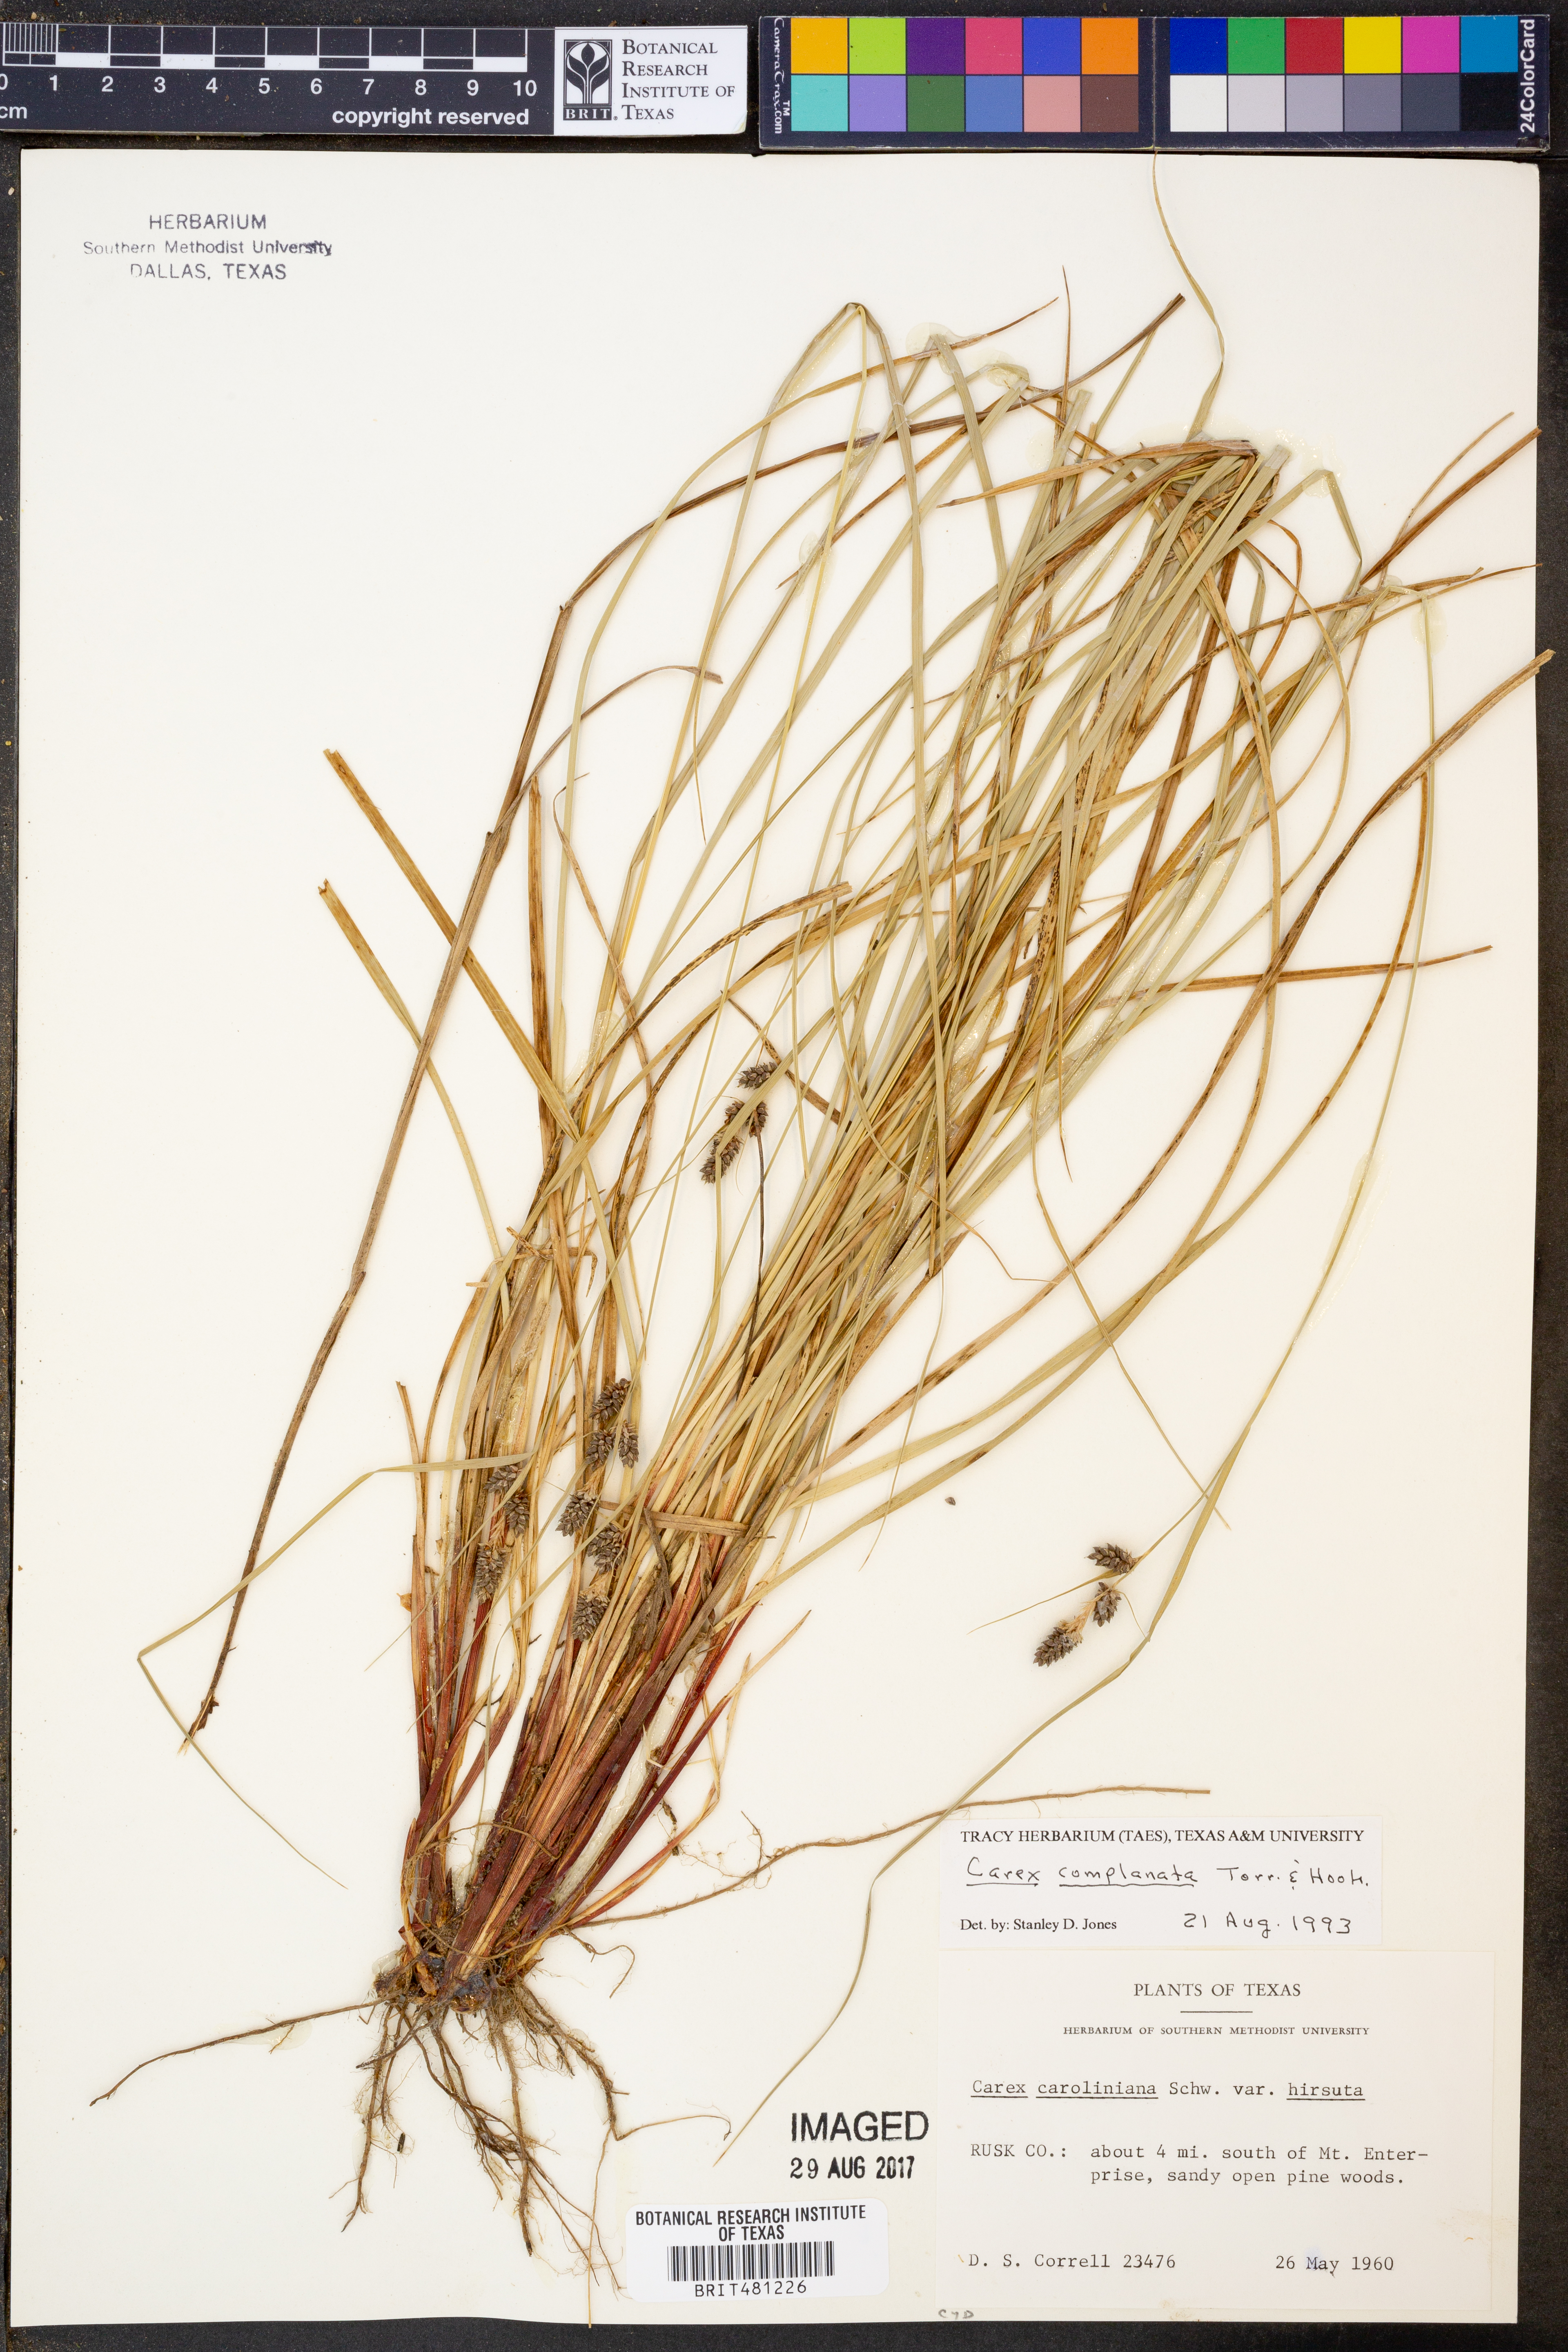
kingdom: Plantae
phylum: Tracheophyta
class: Liliopsida
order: Poales
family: Cyperaceae
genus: Carex
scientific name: Carex complanata
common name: Hirsute sedge
